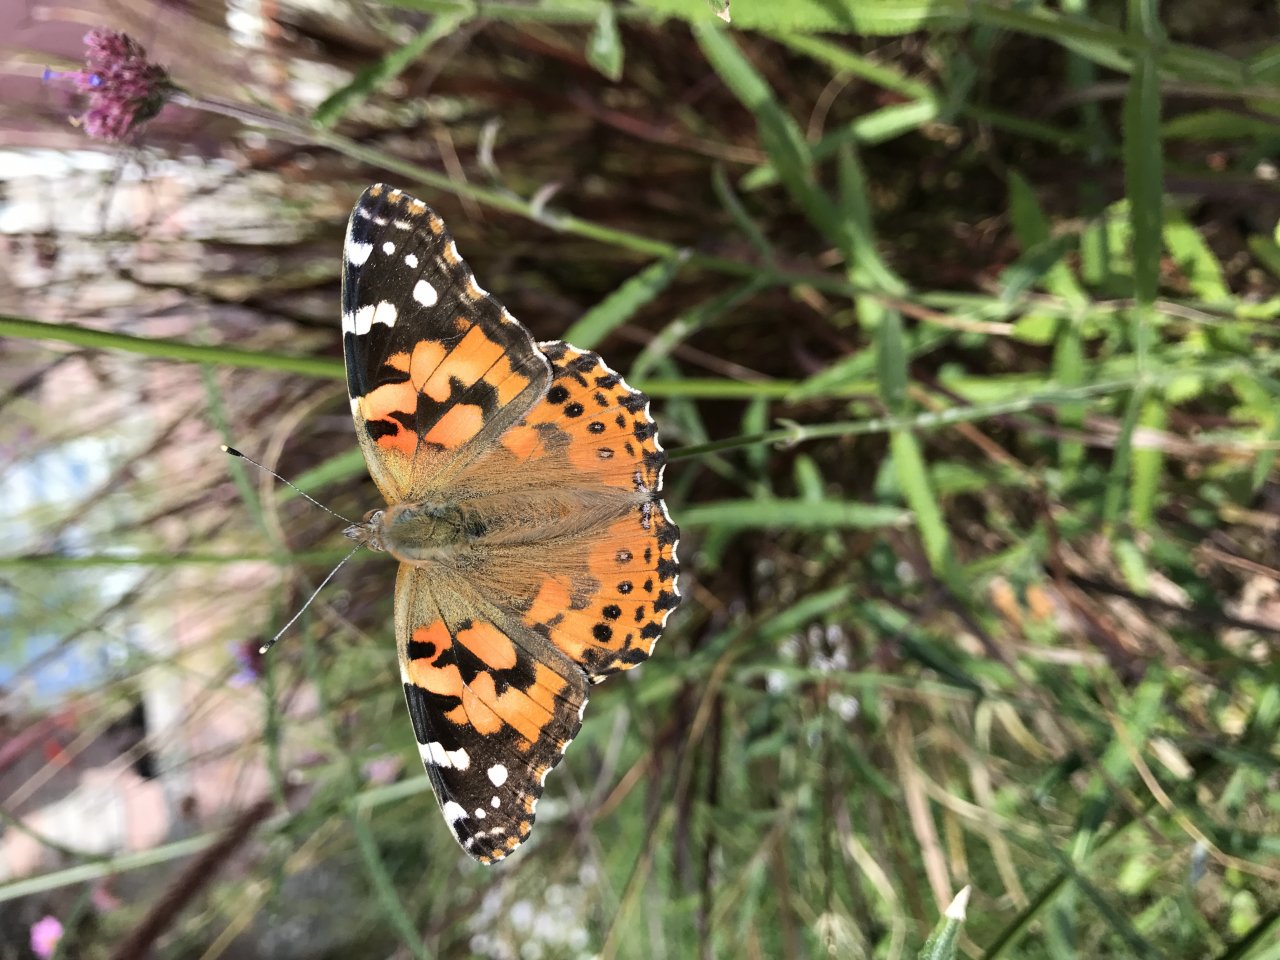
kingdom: Animalia
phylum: Arthropoda
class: Insecta
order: Lepidoptera
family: Nymphalidae
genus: Vanessa
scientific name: Vanessa cardui
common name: Painted Lady
